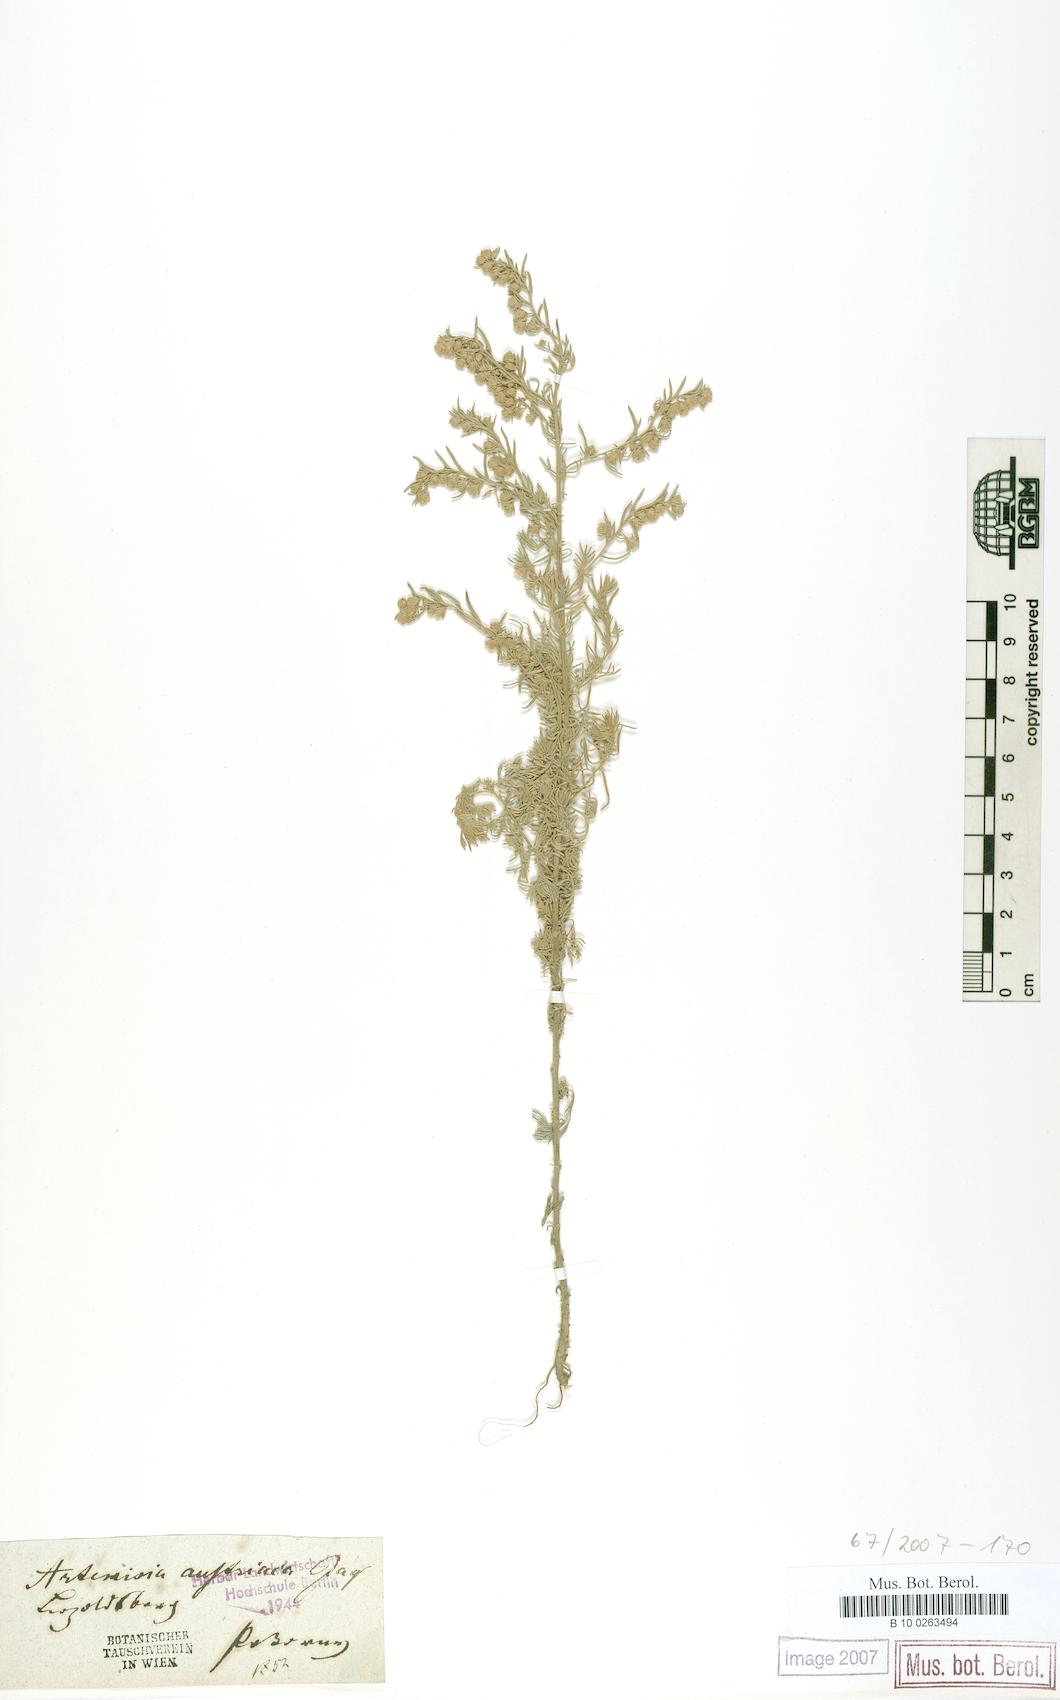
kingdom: Plantae
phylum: Tracheophyta
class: Magnoliopsida
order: Asterales
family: Asteraceae
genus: Artemisia
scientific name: Artemisia austriaca
